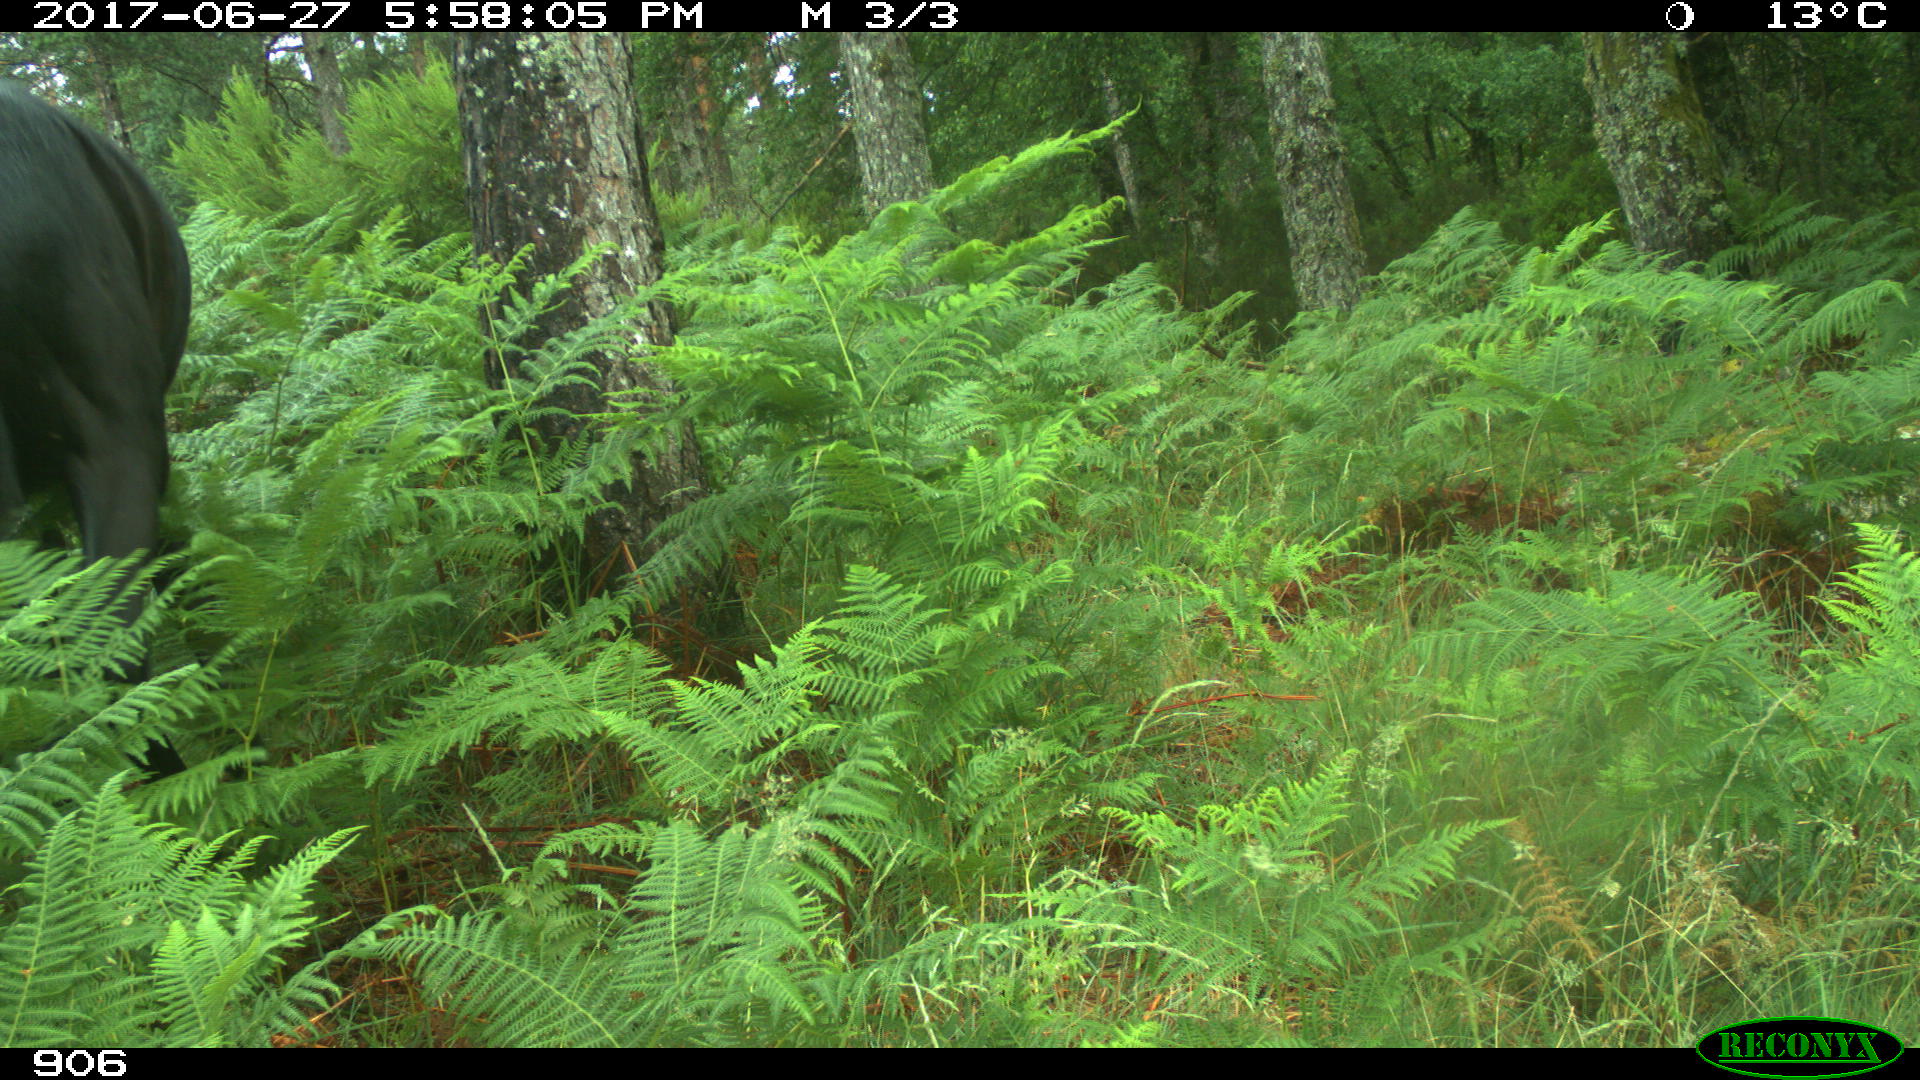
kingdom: Animalia
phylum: Chordata
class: Mammalia
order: Perissodactyla
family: Equidae
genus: Equus
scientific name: Equus caballus
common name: Horse
